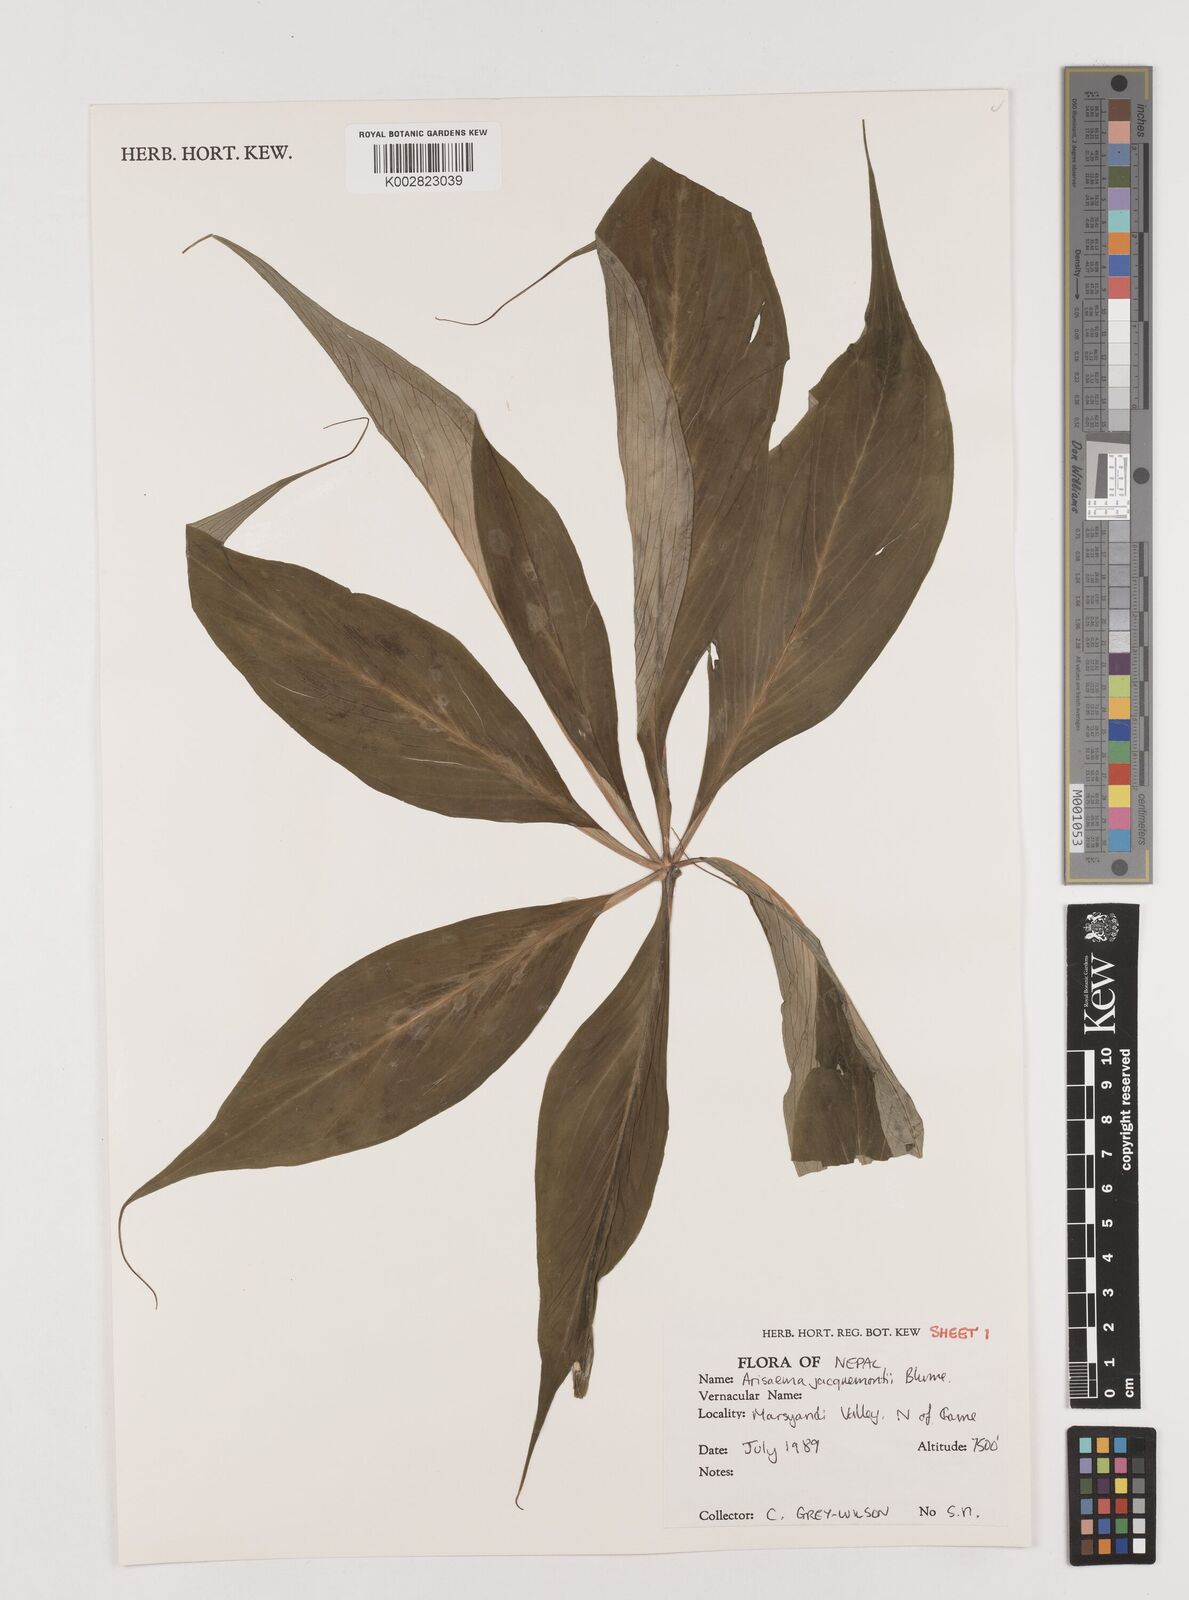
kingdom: Plantae
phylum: Tracheophyta
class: Liliopsida
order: Alismatales
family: Araceae
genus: Arisaema
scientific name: Arisaema jacquemontii
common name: Jacquemont's cobra-lily
